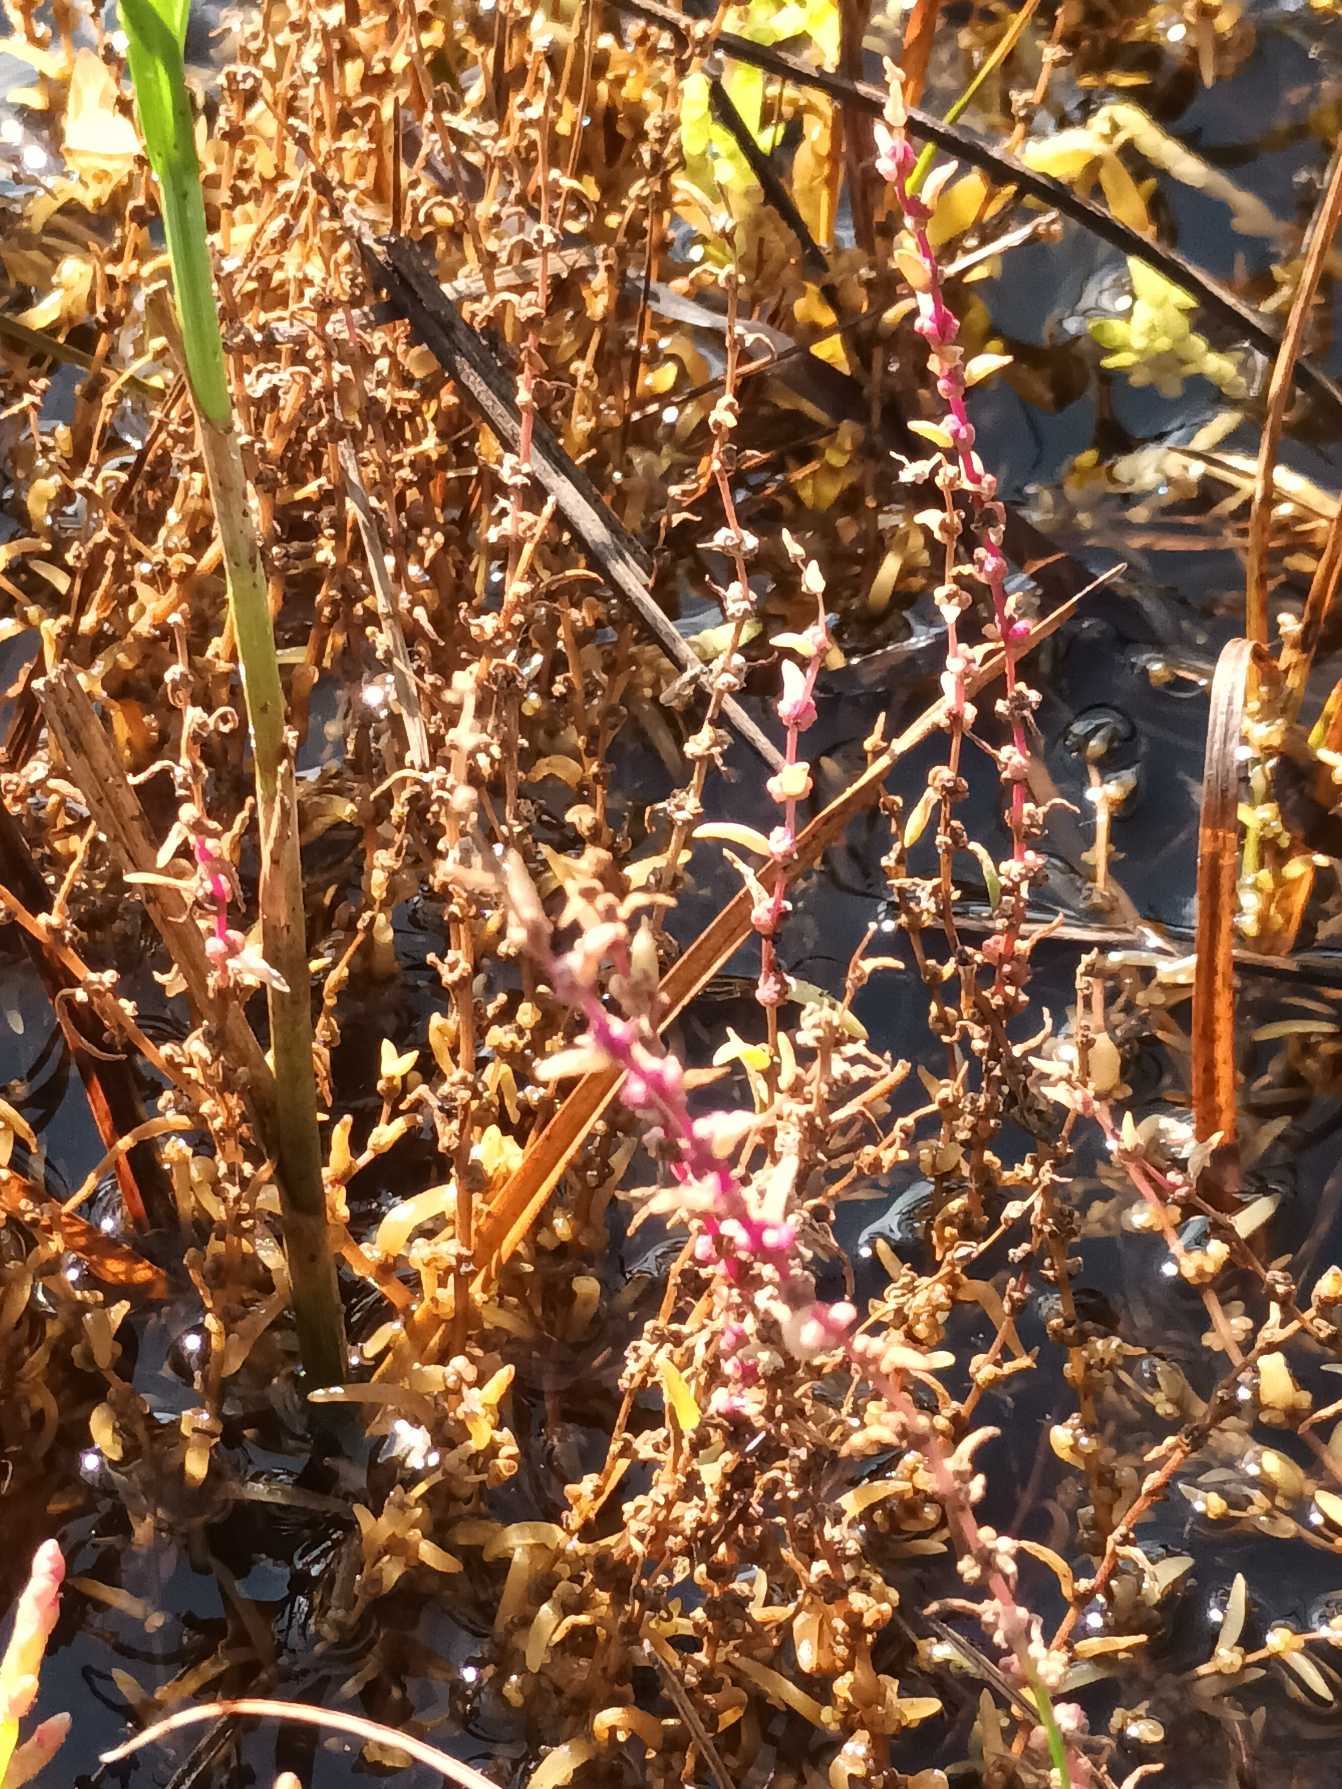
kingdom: Plantae
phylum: Tracheophyta
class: Magnoliopsida
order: Caryophyllales
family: Amaranthaceae
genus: Suaeda
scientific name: Suaeda maritima
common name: Strandgåsefod
